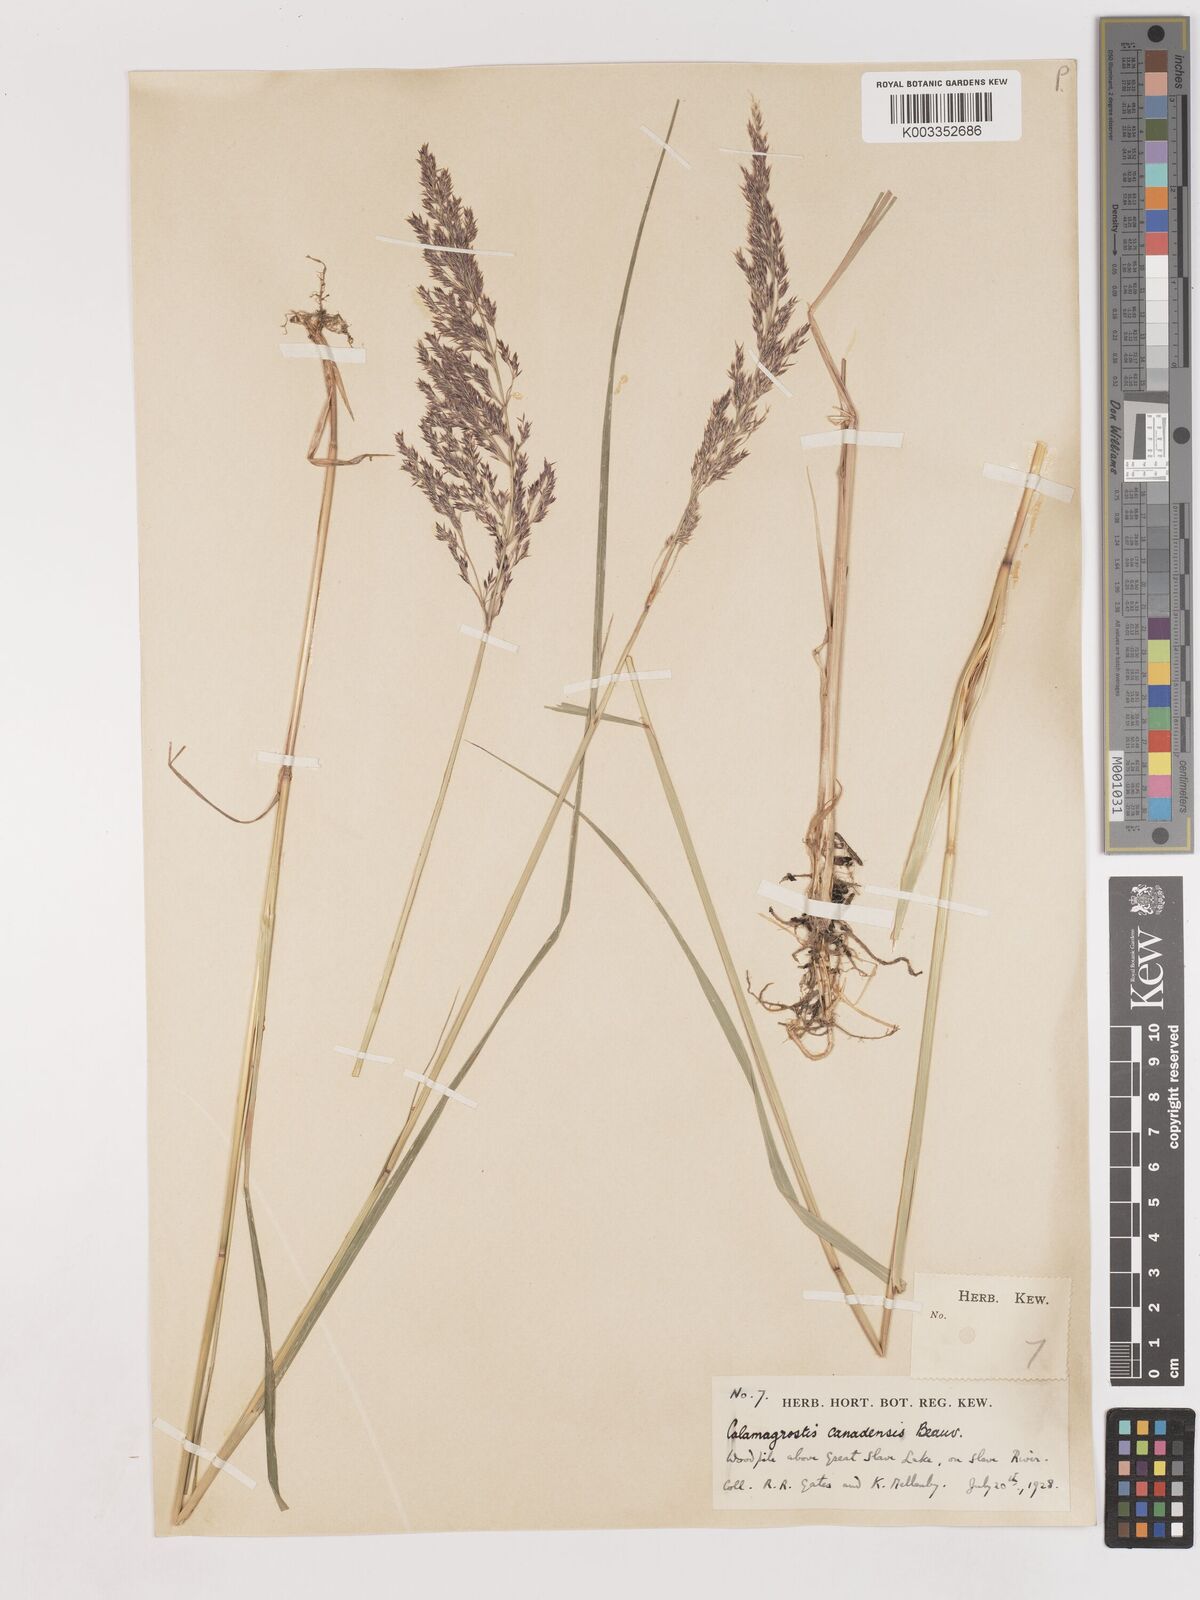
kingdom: Plantae
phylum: Tracheophyta
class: Liliopsida
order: Poales
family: Poaceae
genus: Calamagrostis
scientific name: Calamagrostis canadensis
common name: Canada bluejoint
